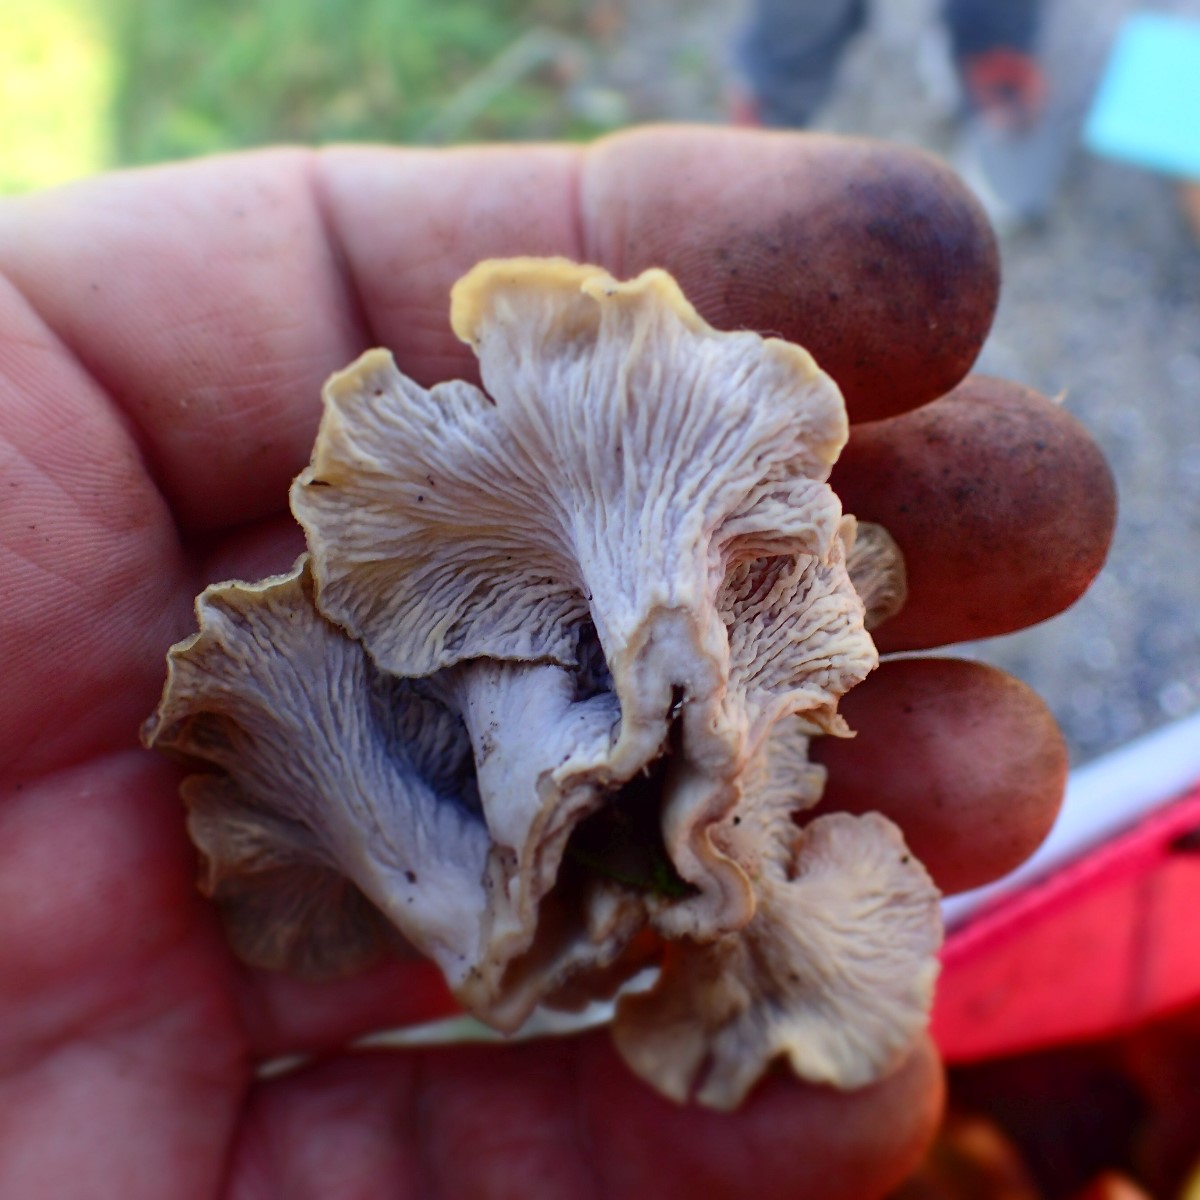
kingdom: Fungi
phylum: Basidiomycota
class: Agaricomycetes
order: Cantharellales
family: Hydnaceae
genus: Craterellus
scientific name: Craterellus
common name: kantarel
